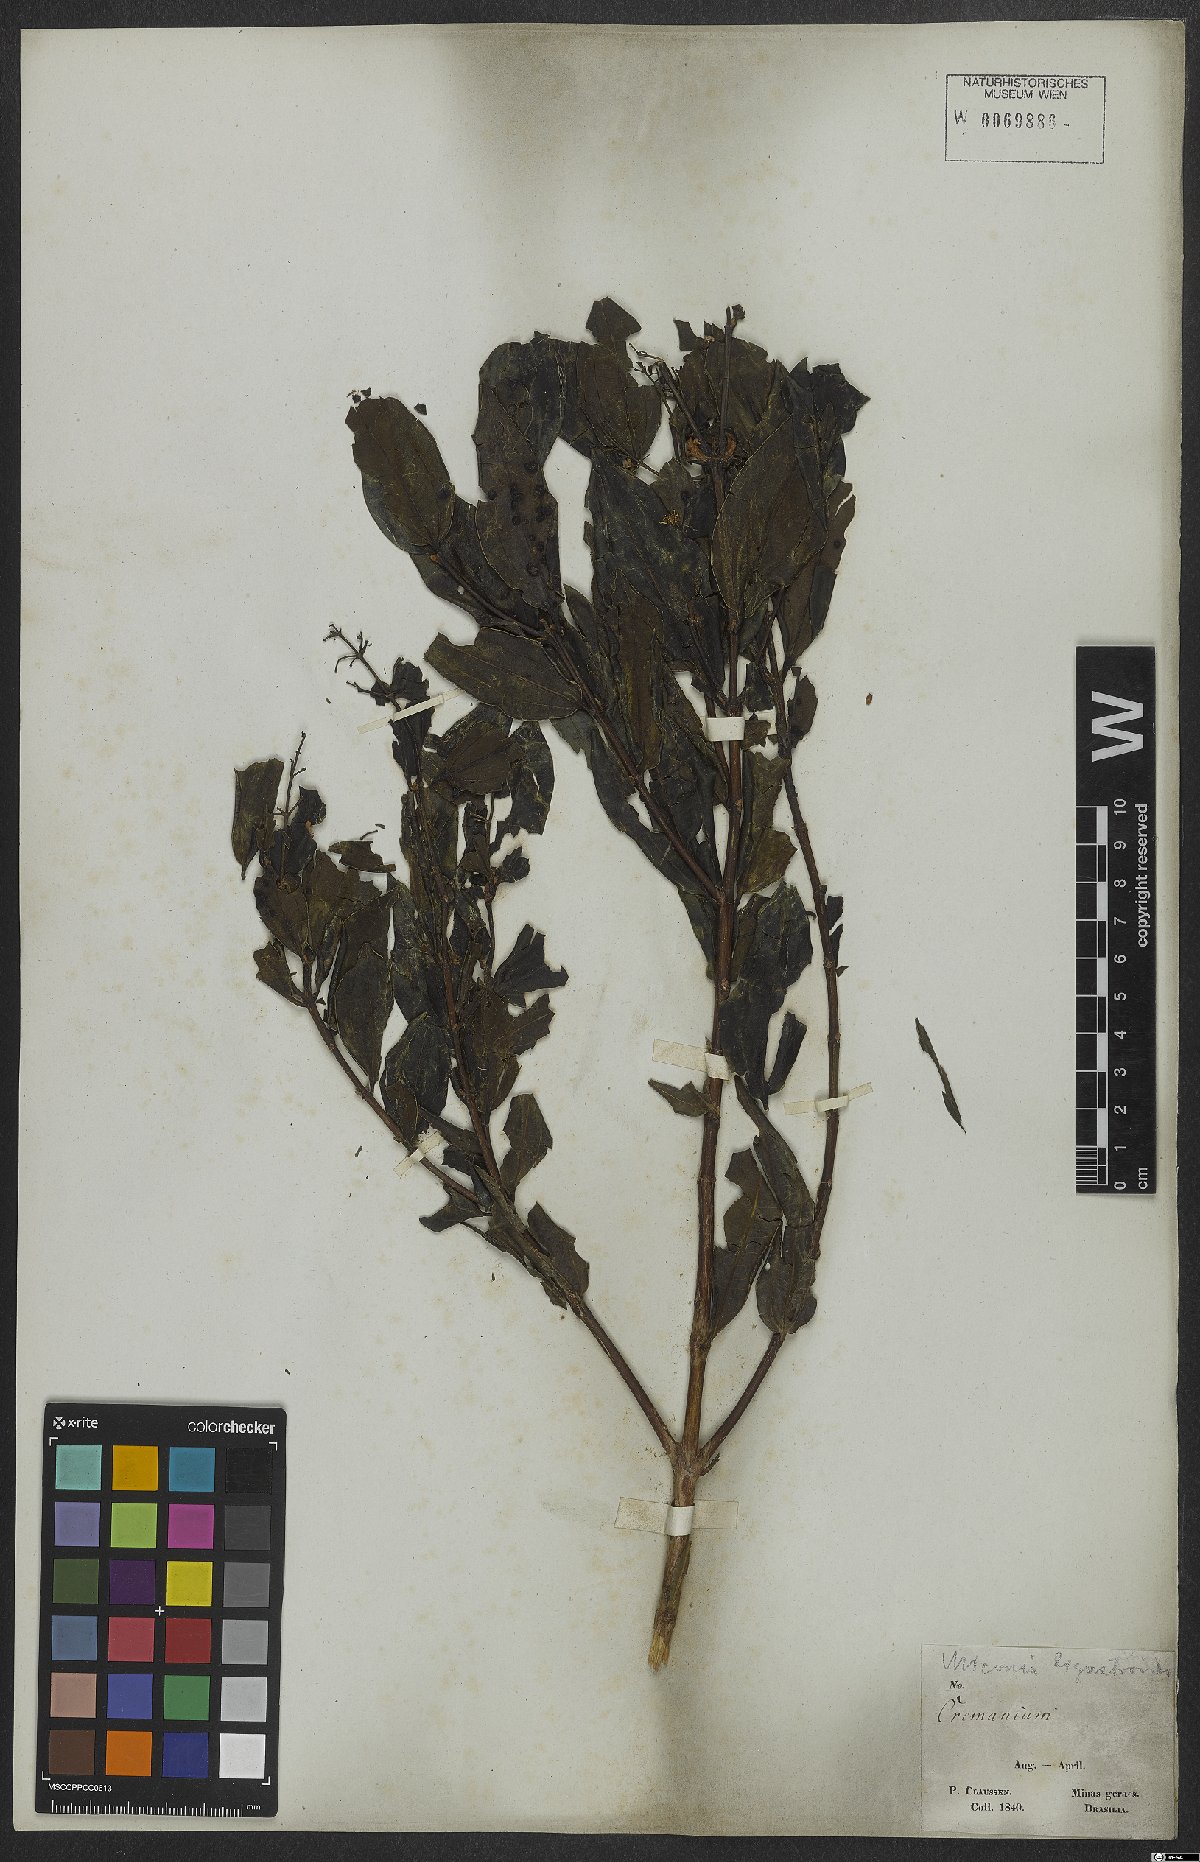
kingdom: Plantae
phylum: Tracheophyta
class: Magnoliopsida
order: Myrtales
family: Melastomataceae
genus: Miconia
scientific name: Miconia ligustroides
